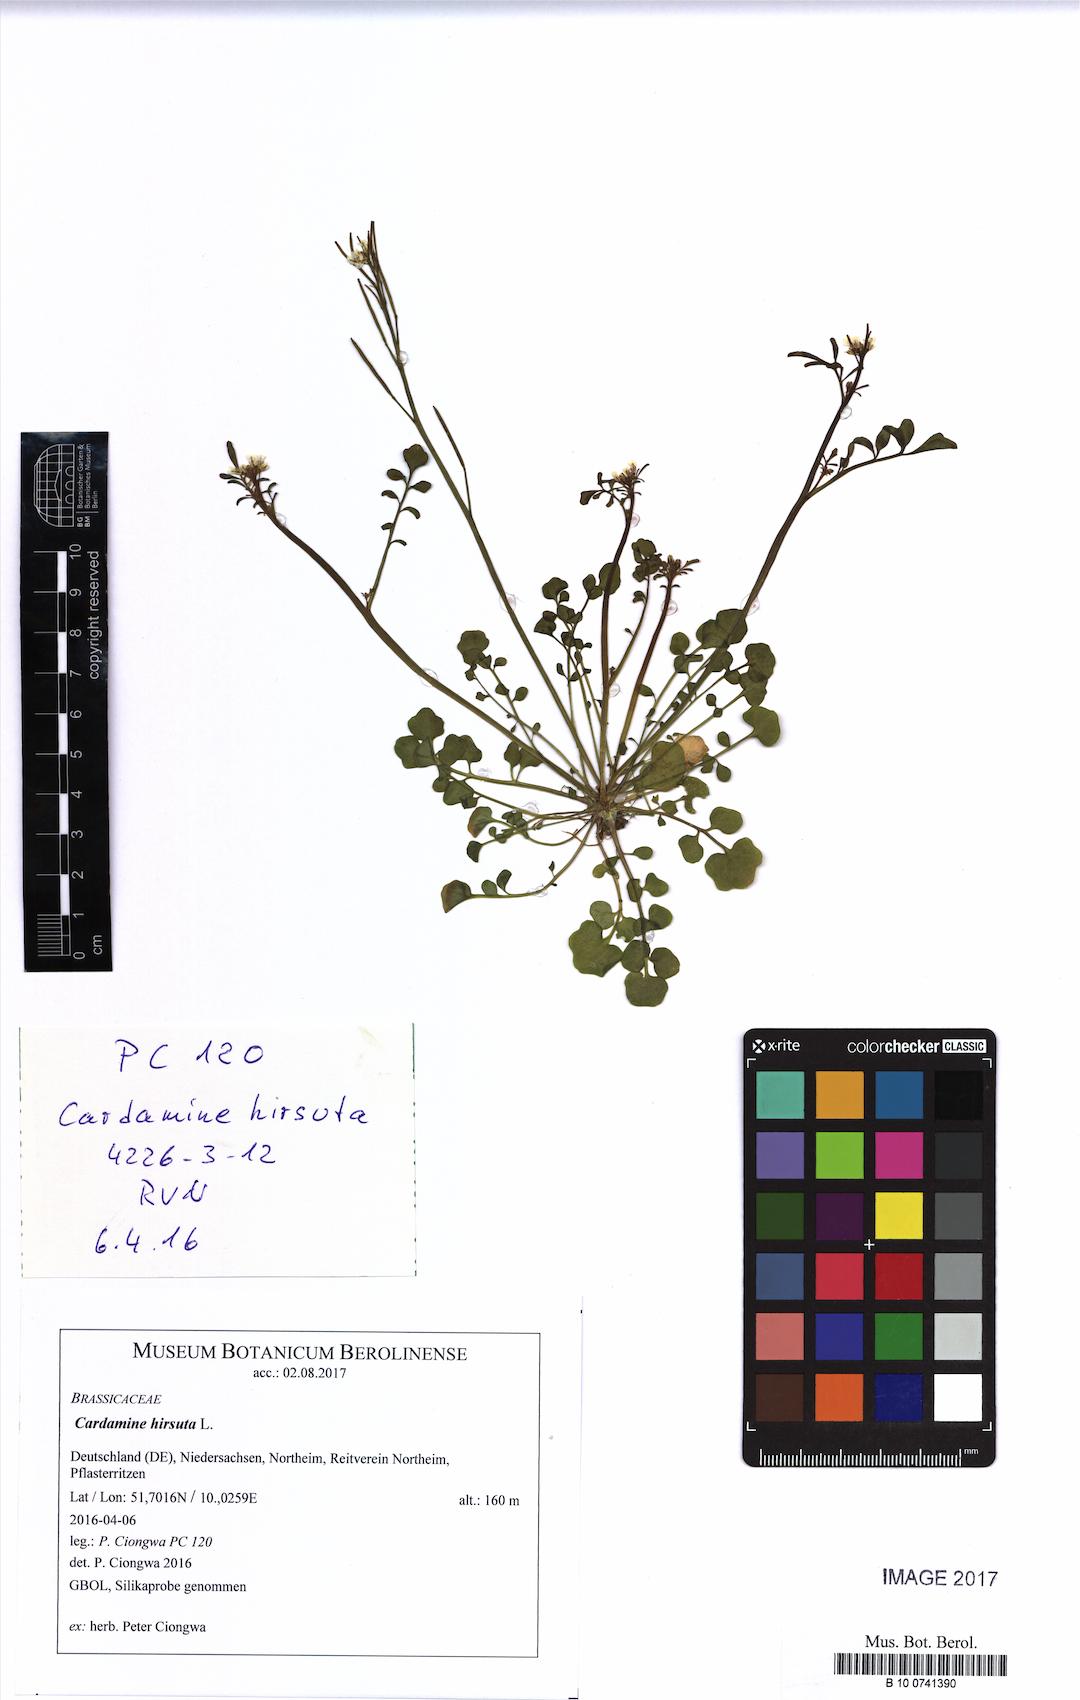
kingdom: Plantae
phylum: Tracheophyta
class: Magnoliopsida
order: Brassicales
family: Brassicaceae
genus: Cardamine
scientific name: Cardamine hirsuta
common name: Hairy bittercress
